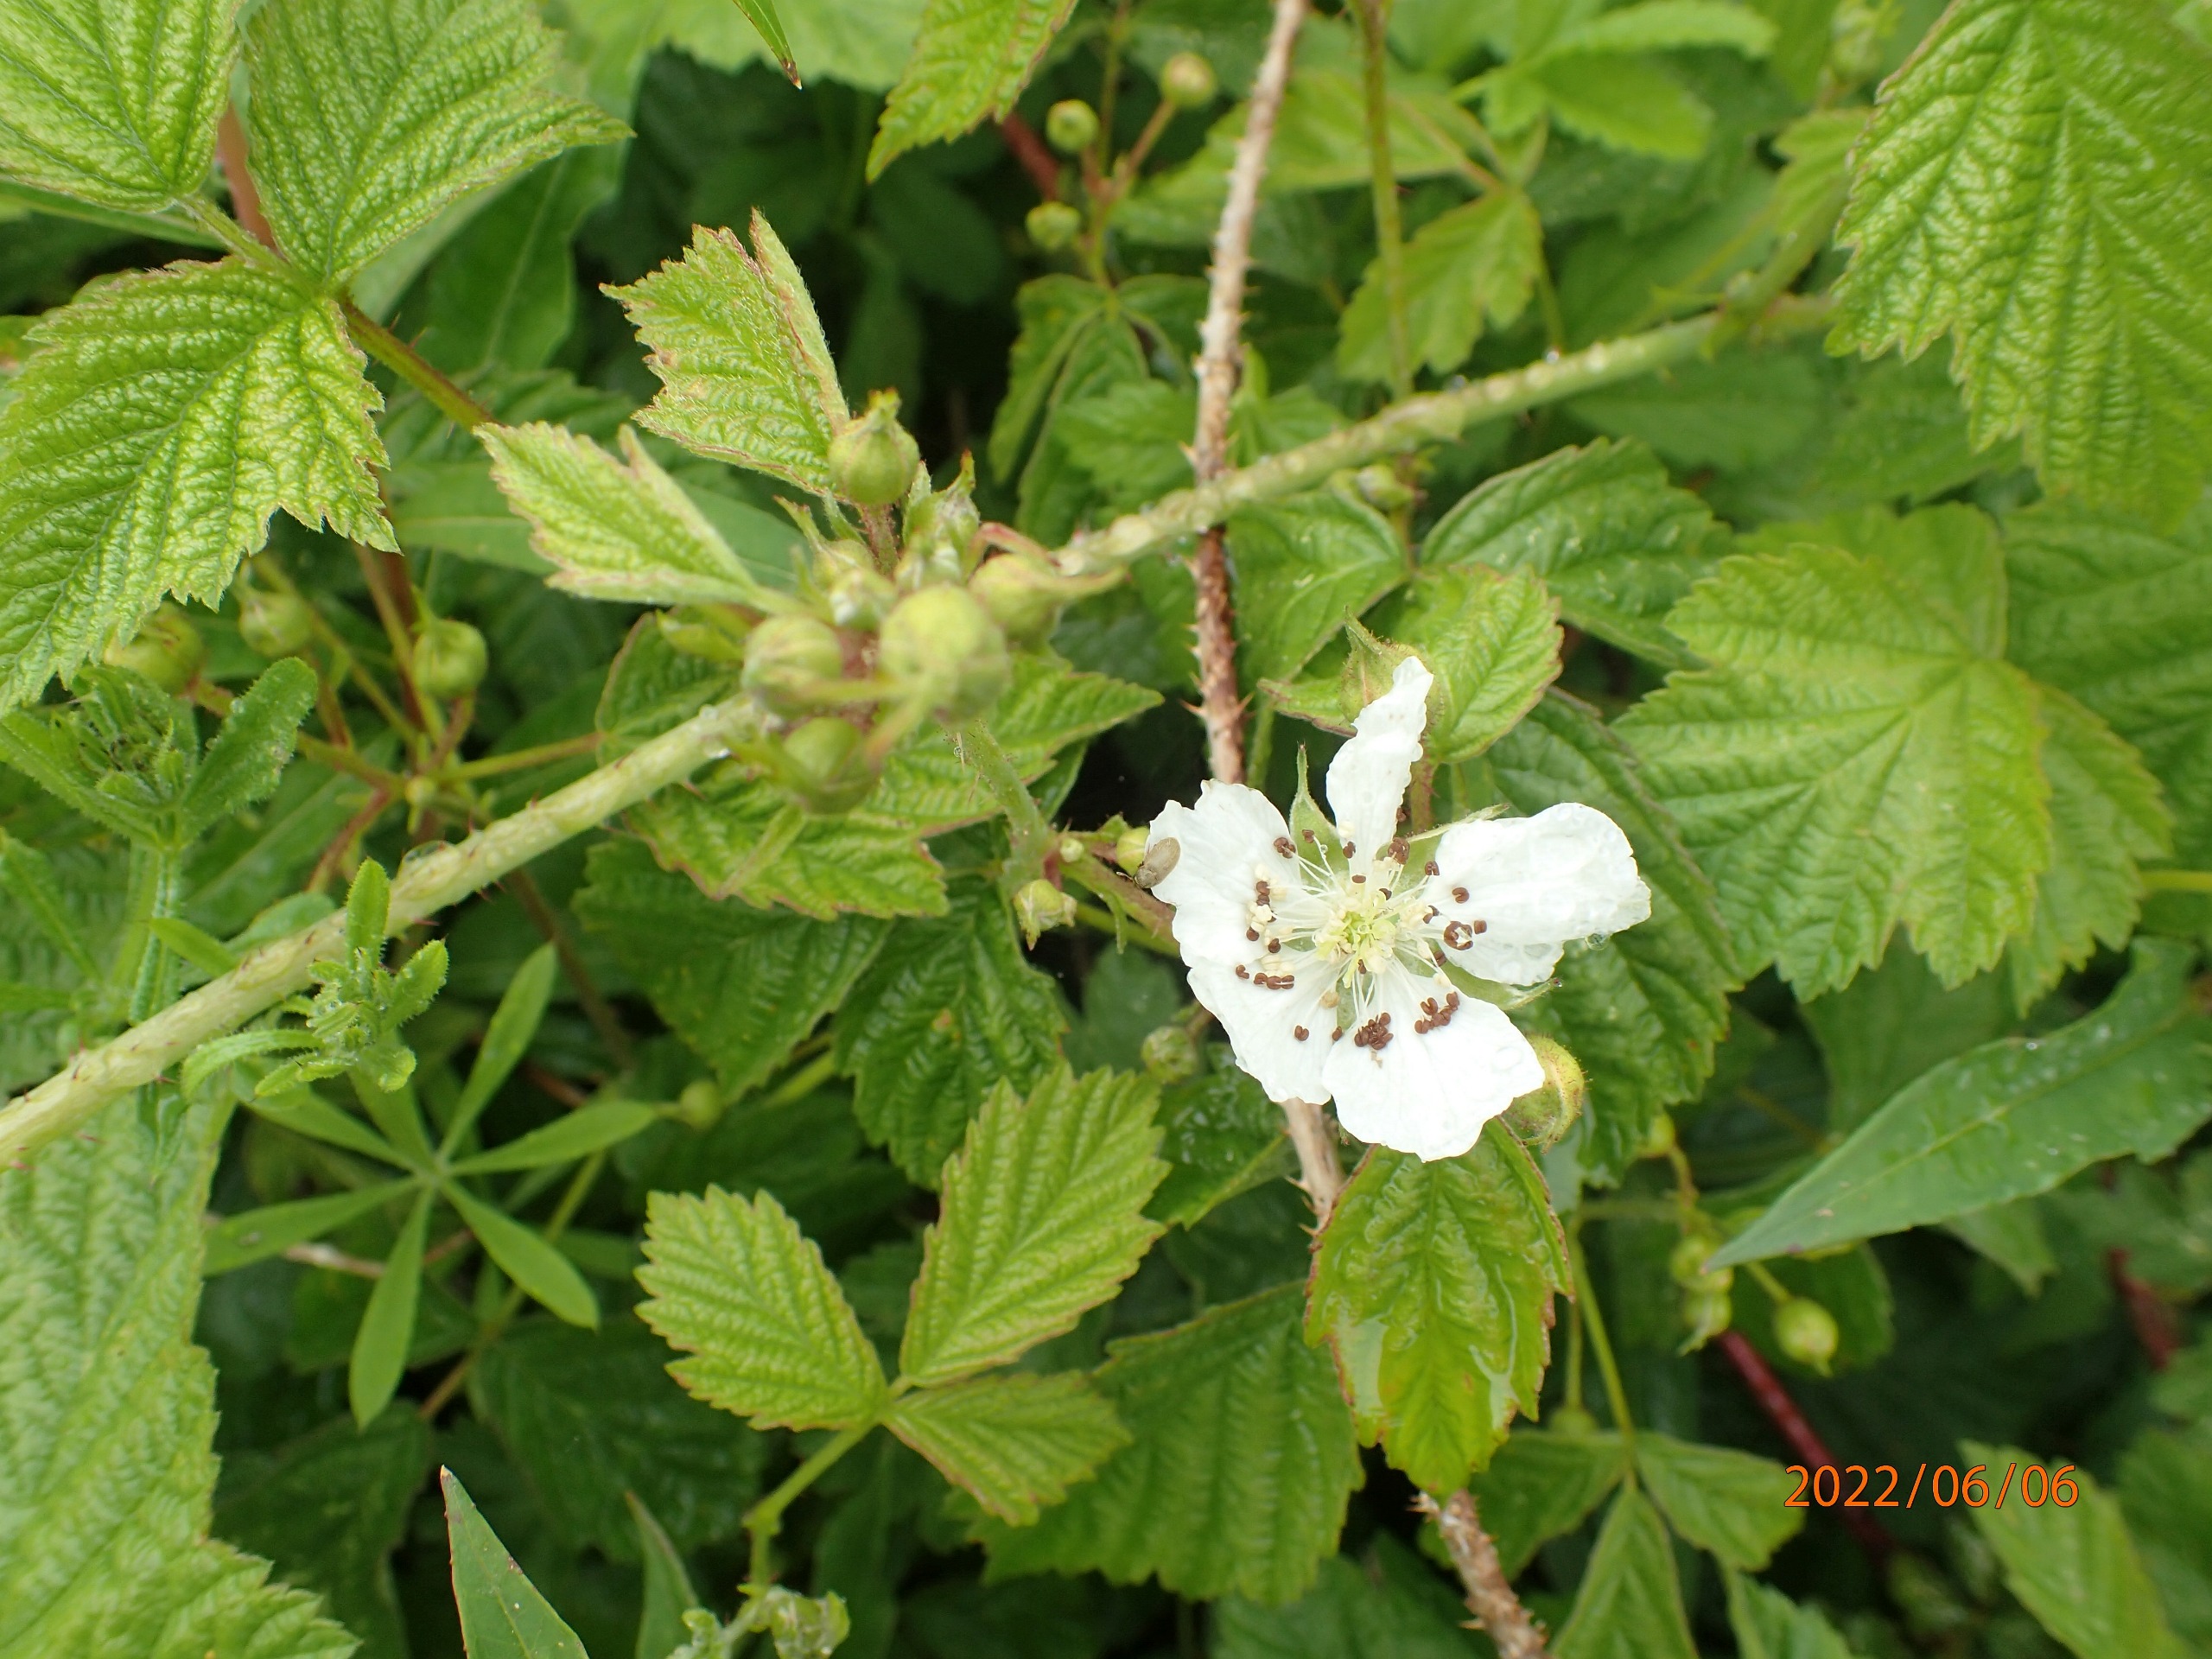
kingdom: Plantae
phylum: Tracheophyta
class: Magnoliopsida
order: Rosales
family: Rosaceae
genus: Rubus
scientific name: Rubus caesius
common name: Korbær
